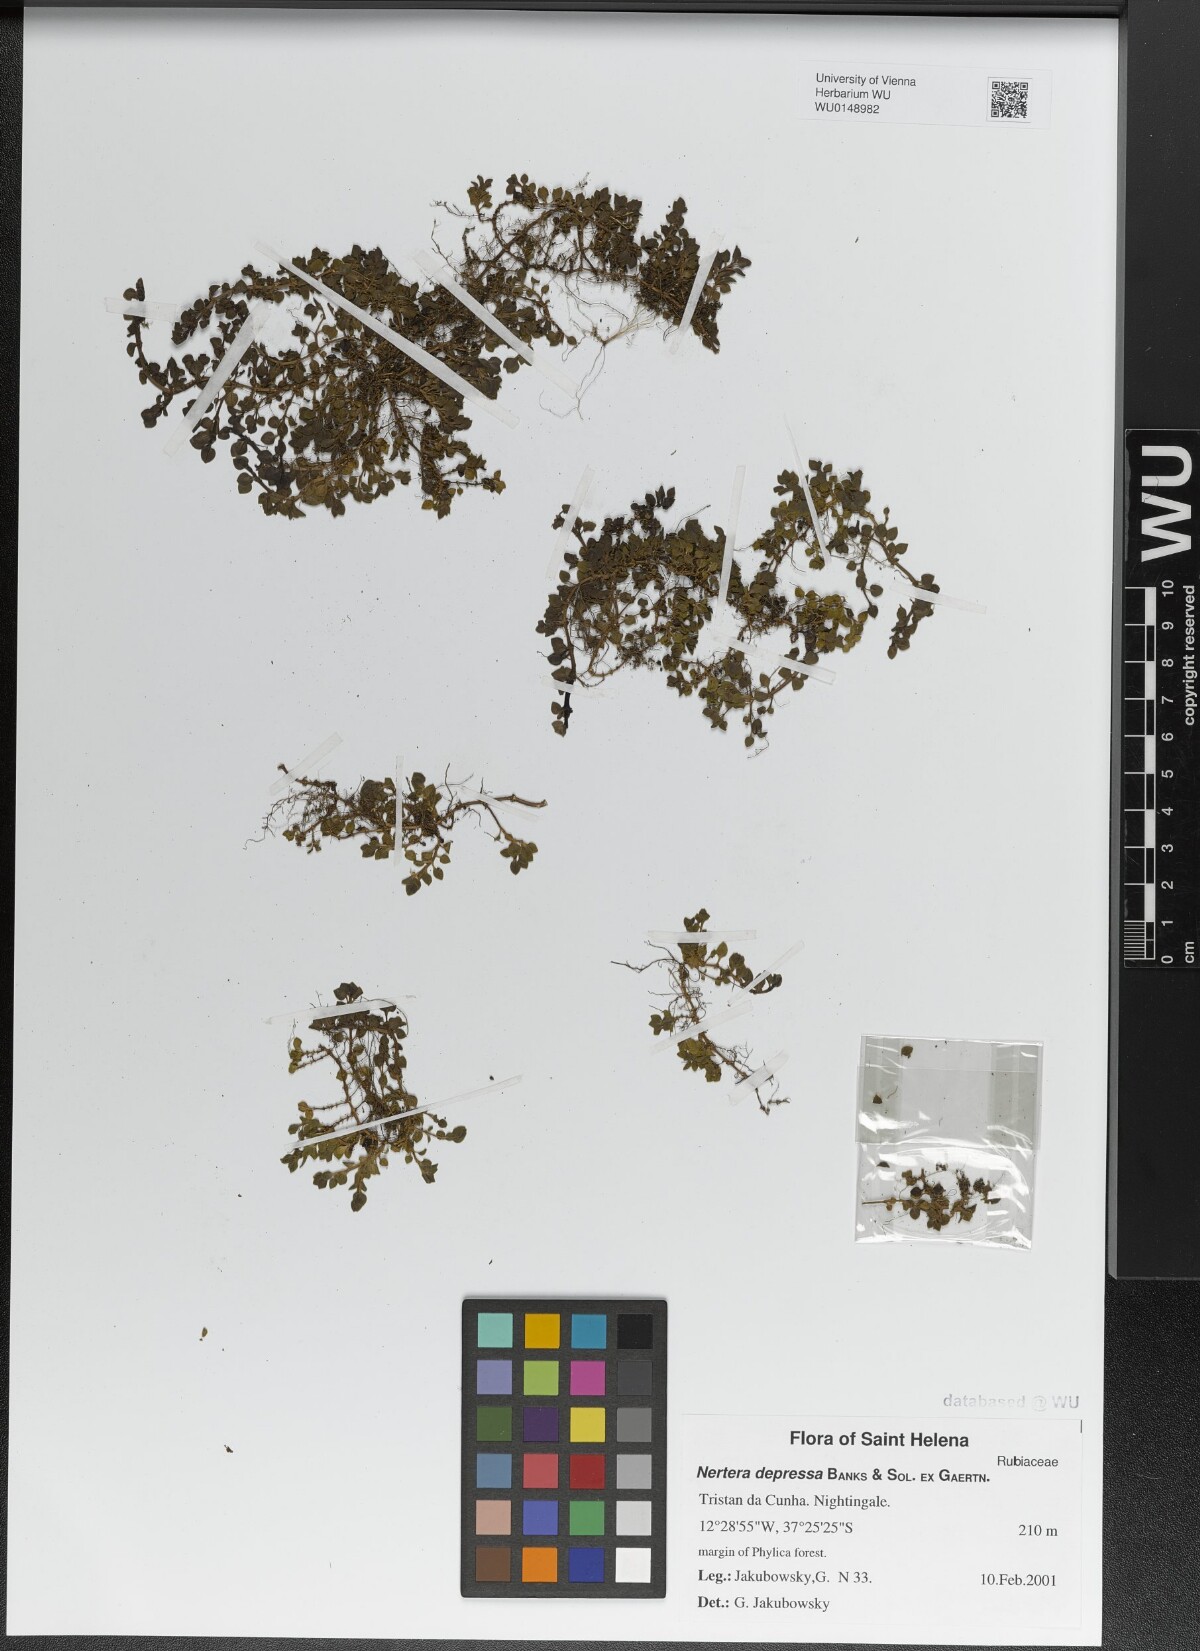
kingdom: Plantae
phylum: Tracheophyta
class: Magnoliopsida
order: Gentianales
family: Rubiaceae
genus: Nertera
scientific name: Nertera granadensis
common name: Beadplant
